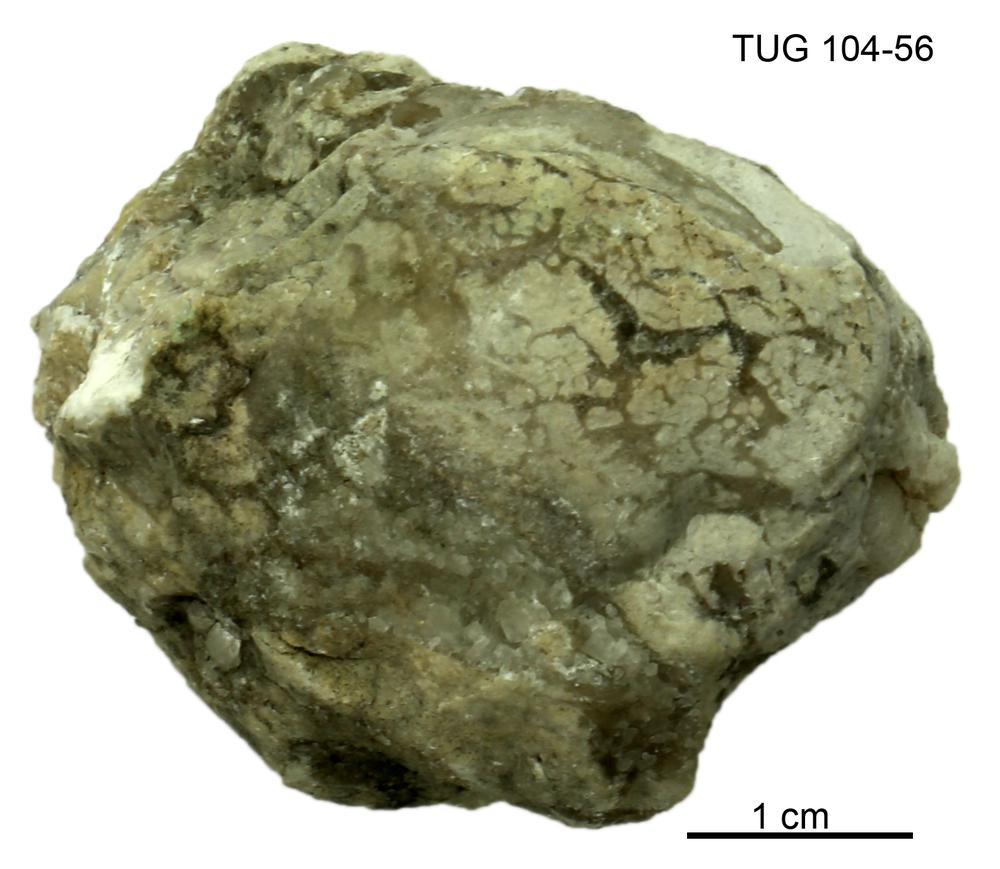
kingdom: Animalia
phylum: Arthropoda
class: Trilobita
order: Corynexochida
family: Illaenidae
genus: Stenopareia
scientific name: Stenopareia linnarssoni
